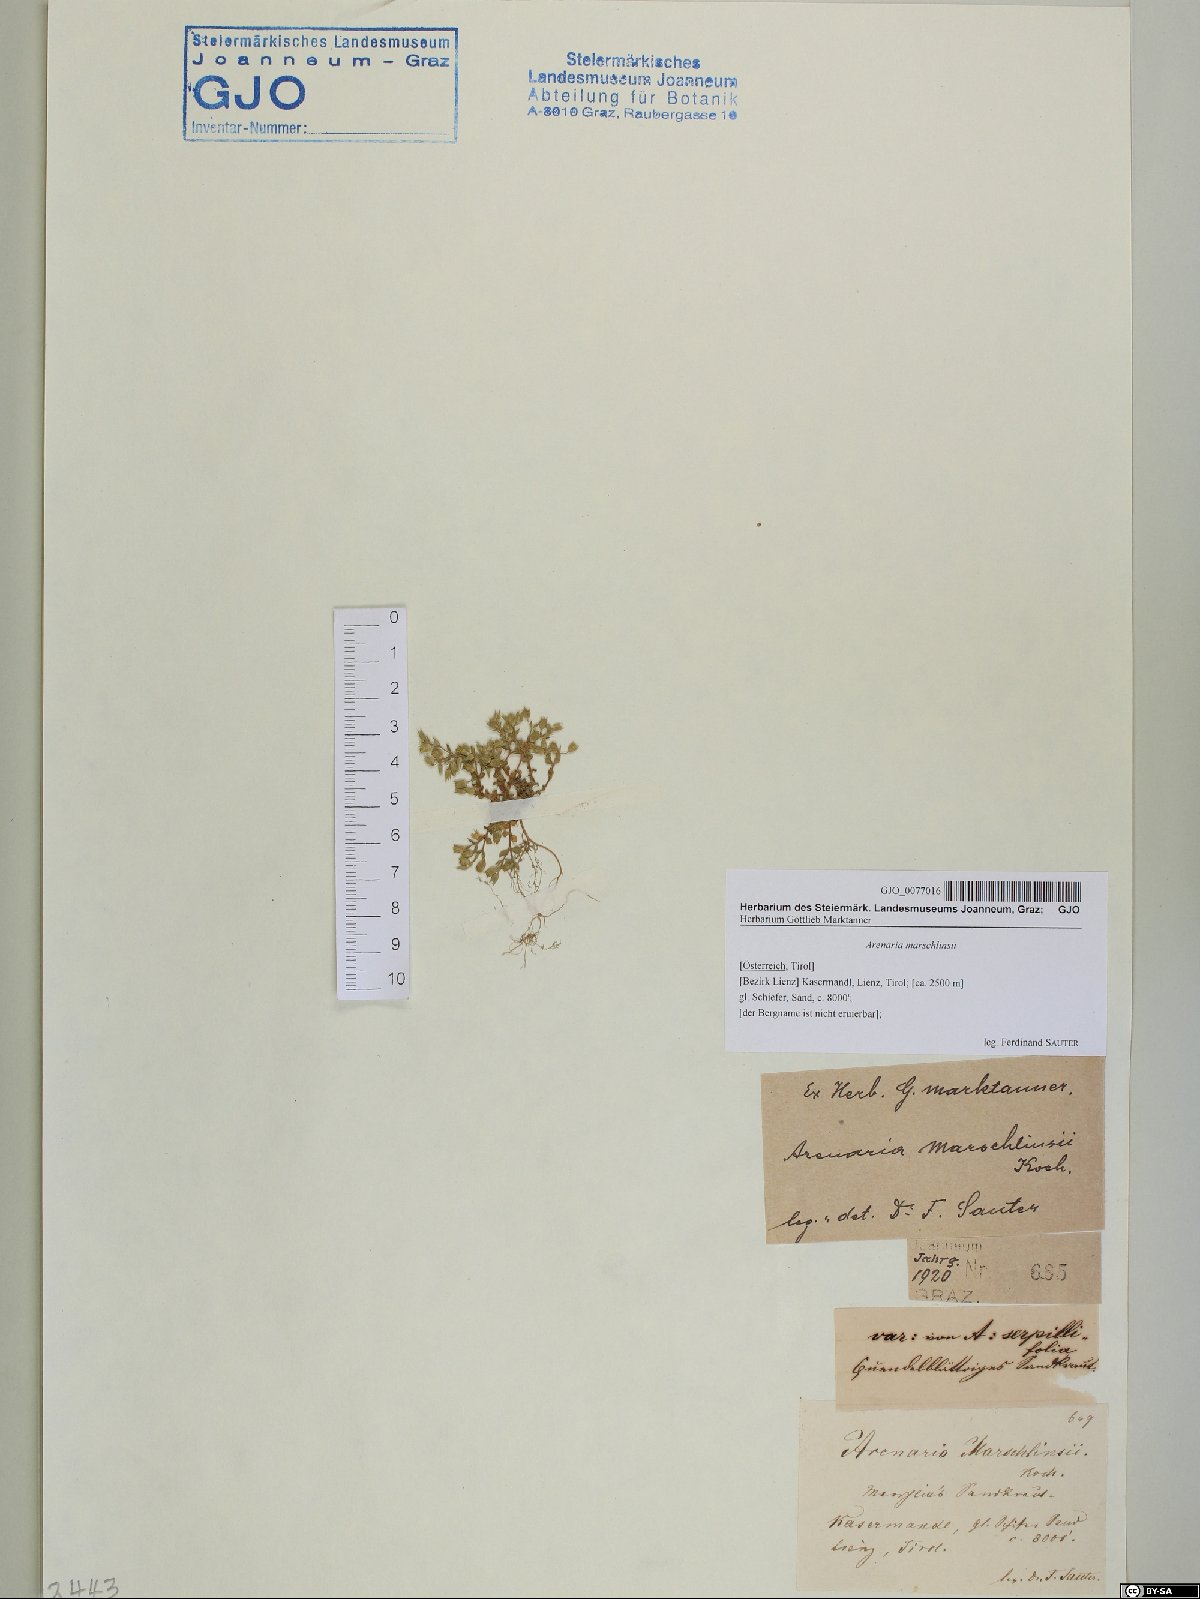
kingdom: Plantae
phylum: Tracheophyta
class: Magnoliopsida
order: Caryophyllales
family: Caryophyllaceae
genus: Arenaria
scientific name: Arenaria marschlinsii
